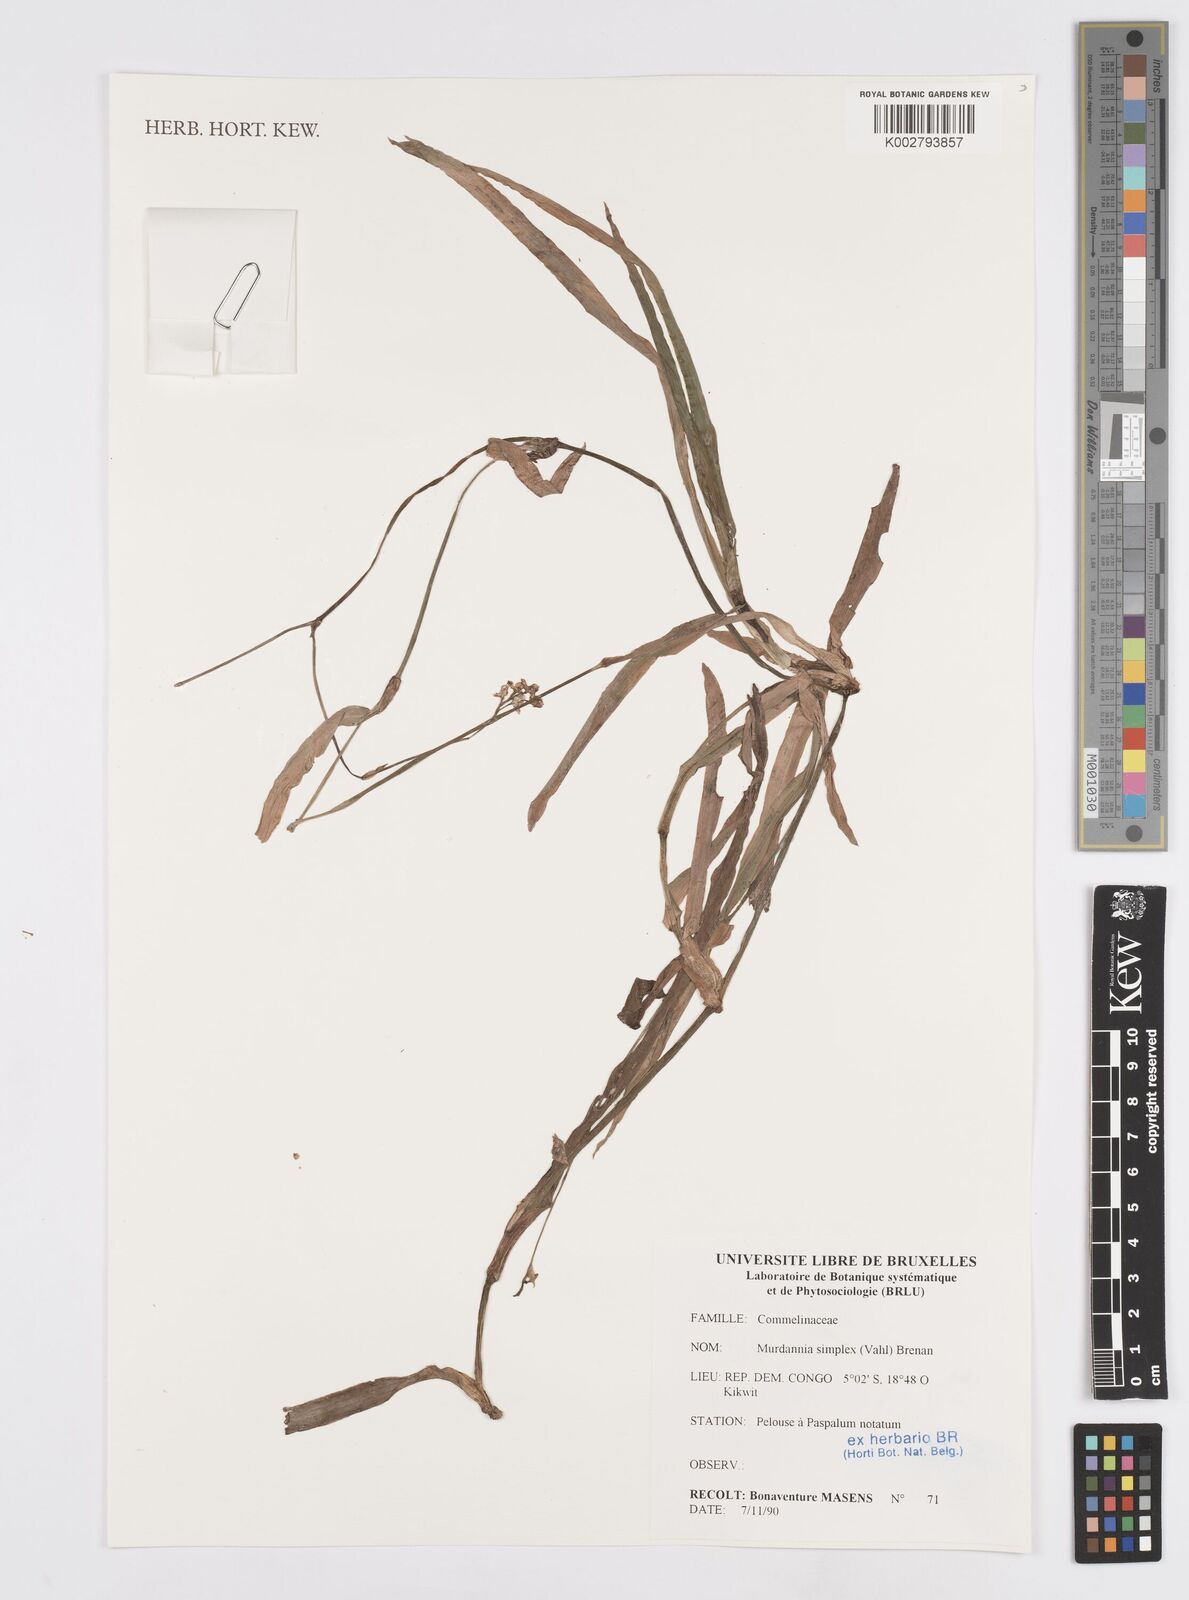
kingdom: Plantae
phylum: Tracheophyta
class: Liliopsida
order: Commelinales
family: Commelinaceae
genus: Murdannia
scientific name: Murdannia simplex
